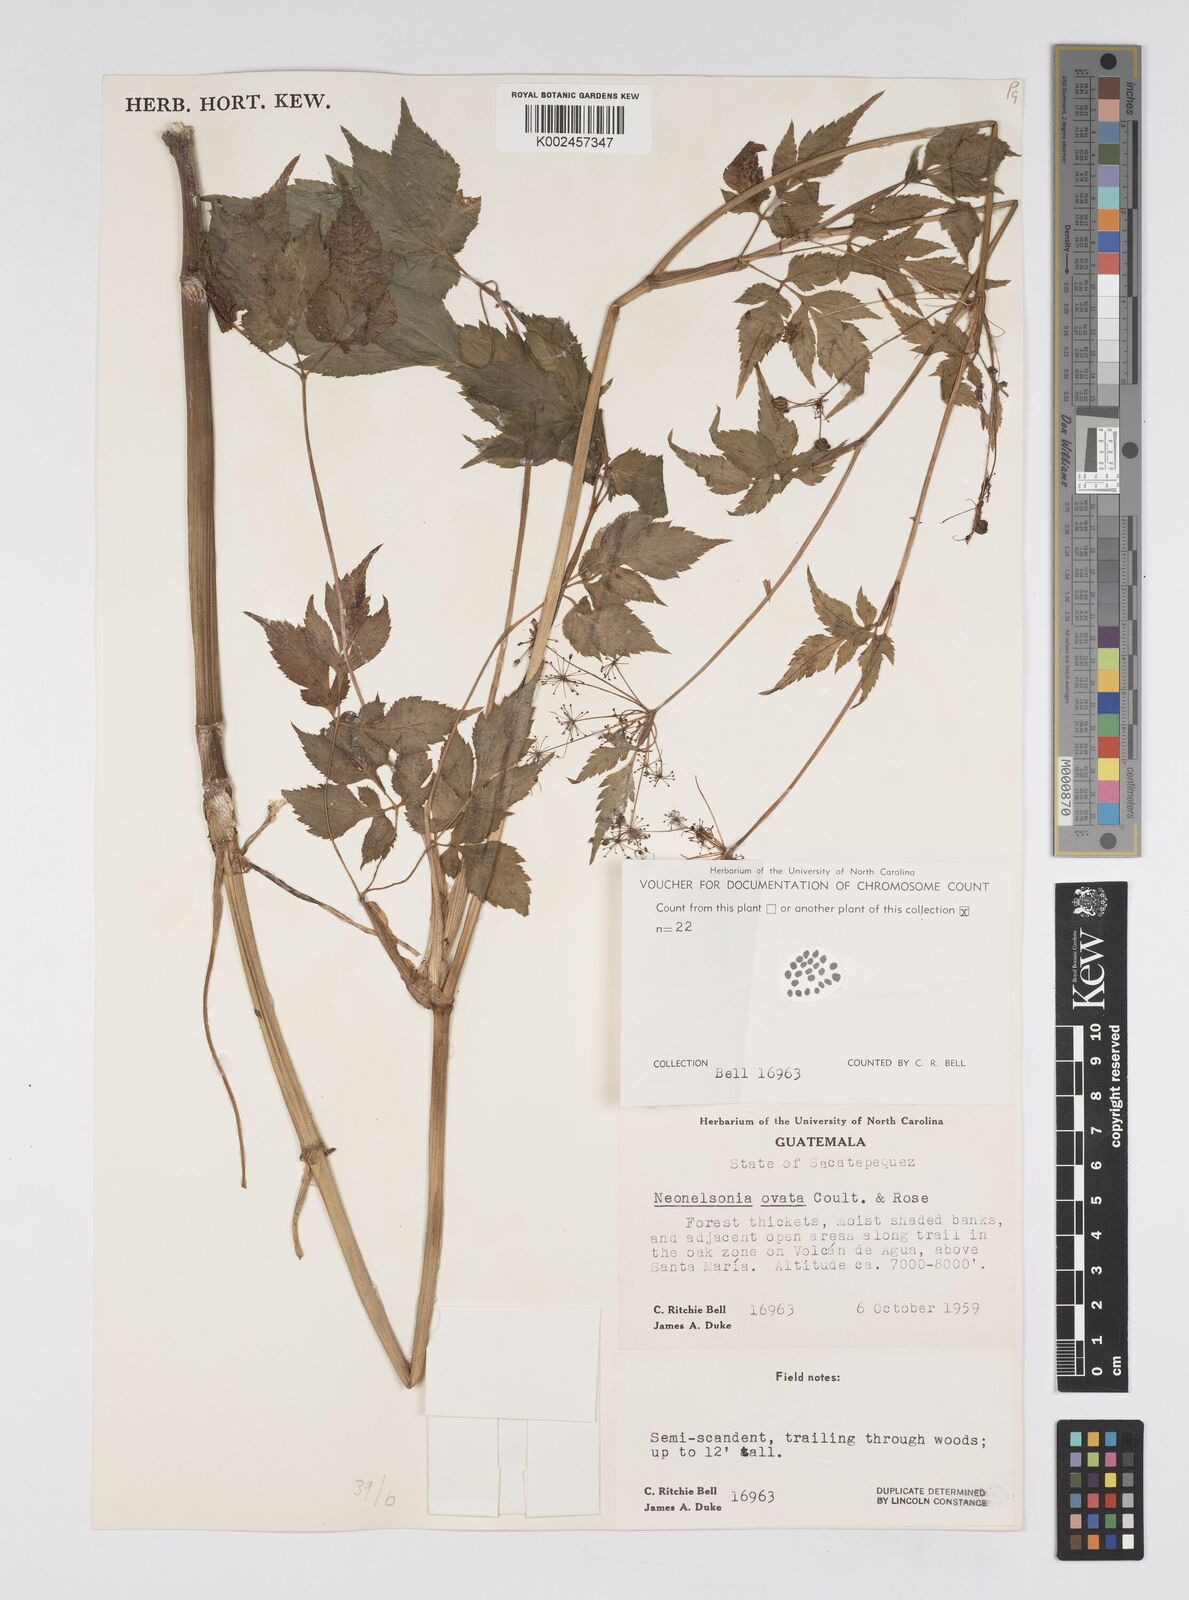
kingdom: Plantae
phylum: Tracheophyta
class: Magnoliopsida
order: Apiales
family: Apiaceae
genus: Neonelsonia
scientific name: Neonelsonia acuminata
